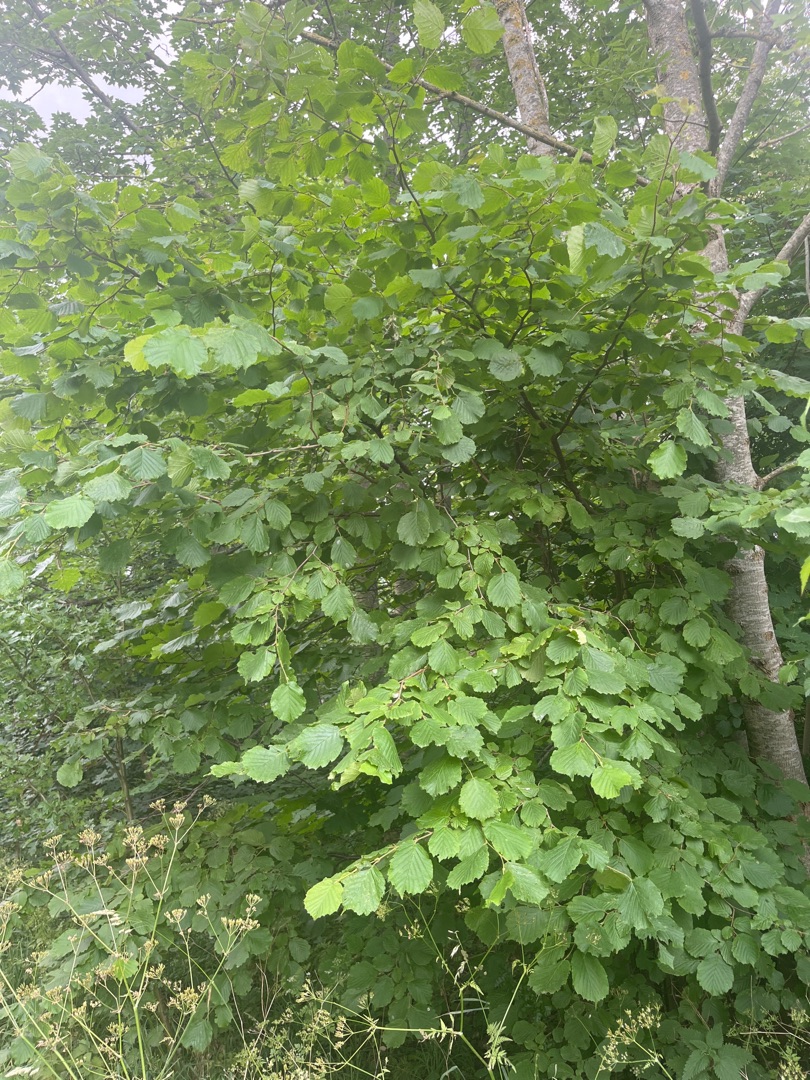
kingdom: Plantae
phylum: Tracheophyta
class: Magnoliopsida
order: Fagales
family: Betulaceae
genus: Corylus
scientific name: Corylus avellana
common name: Hassel
